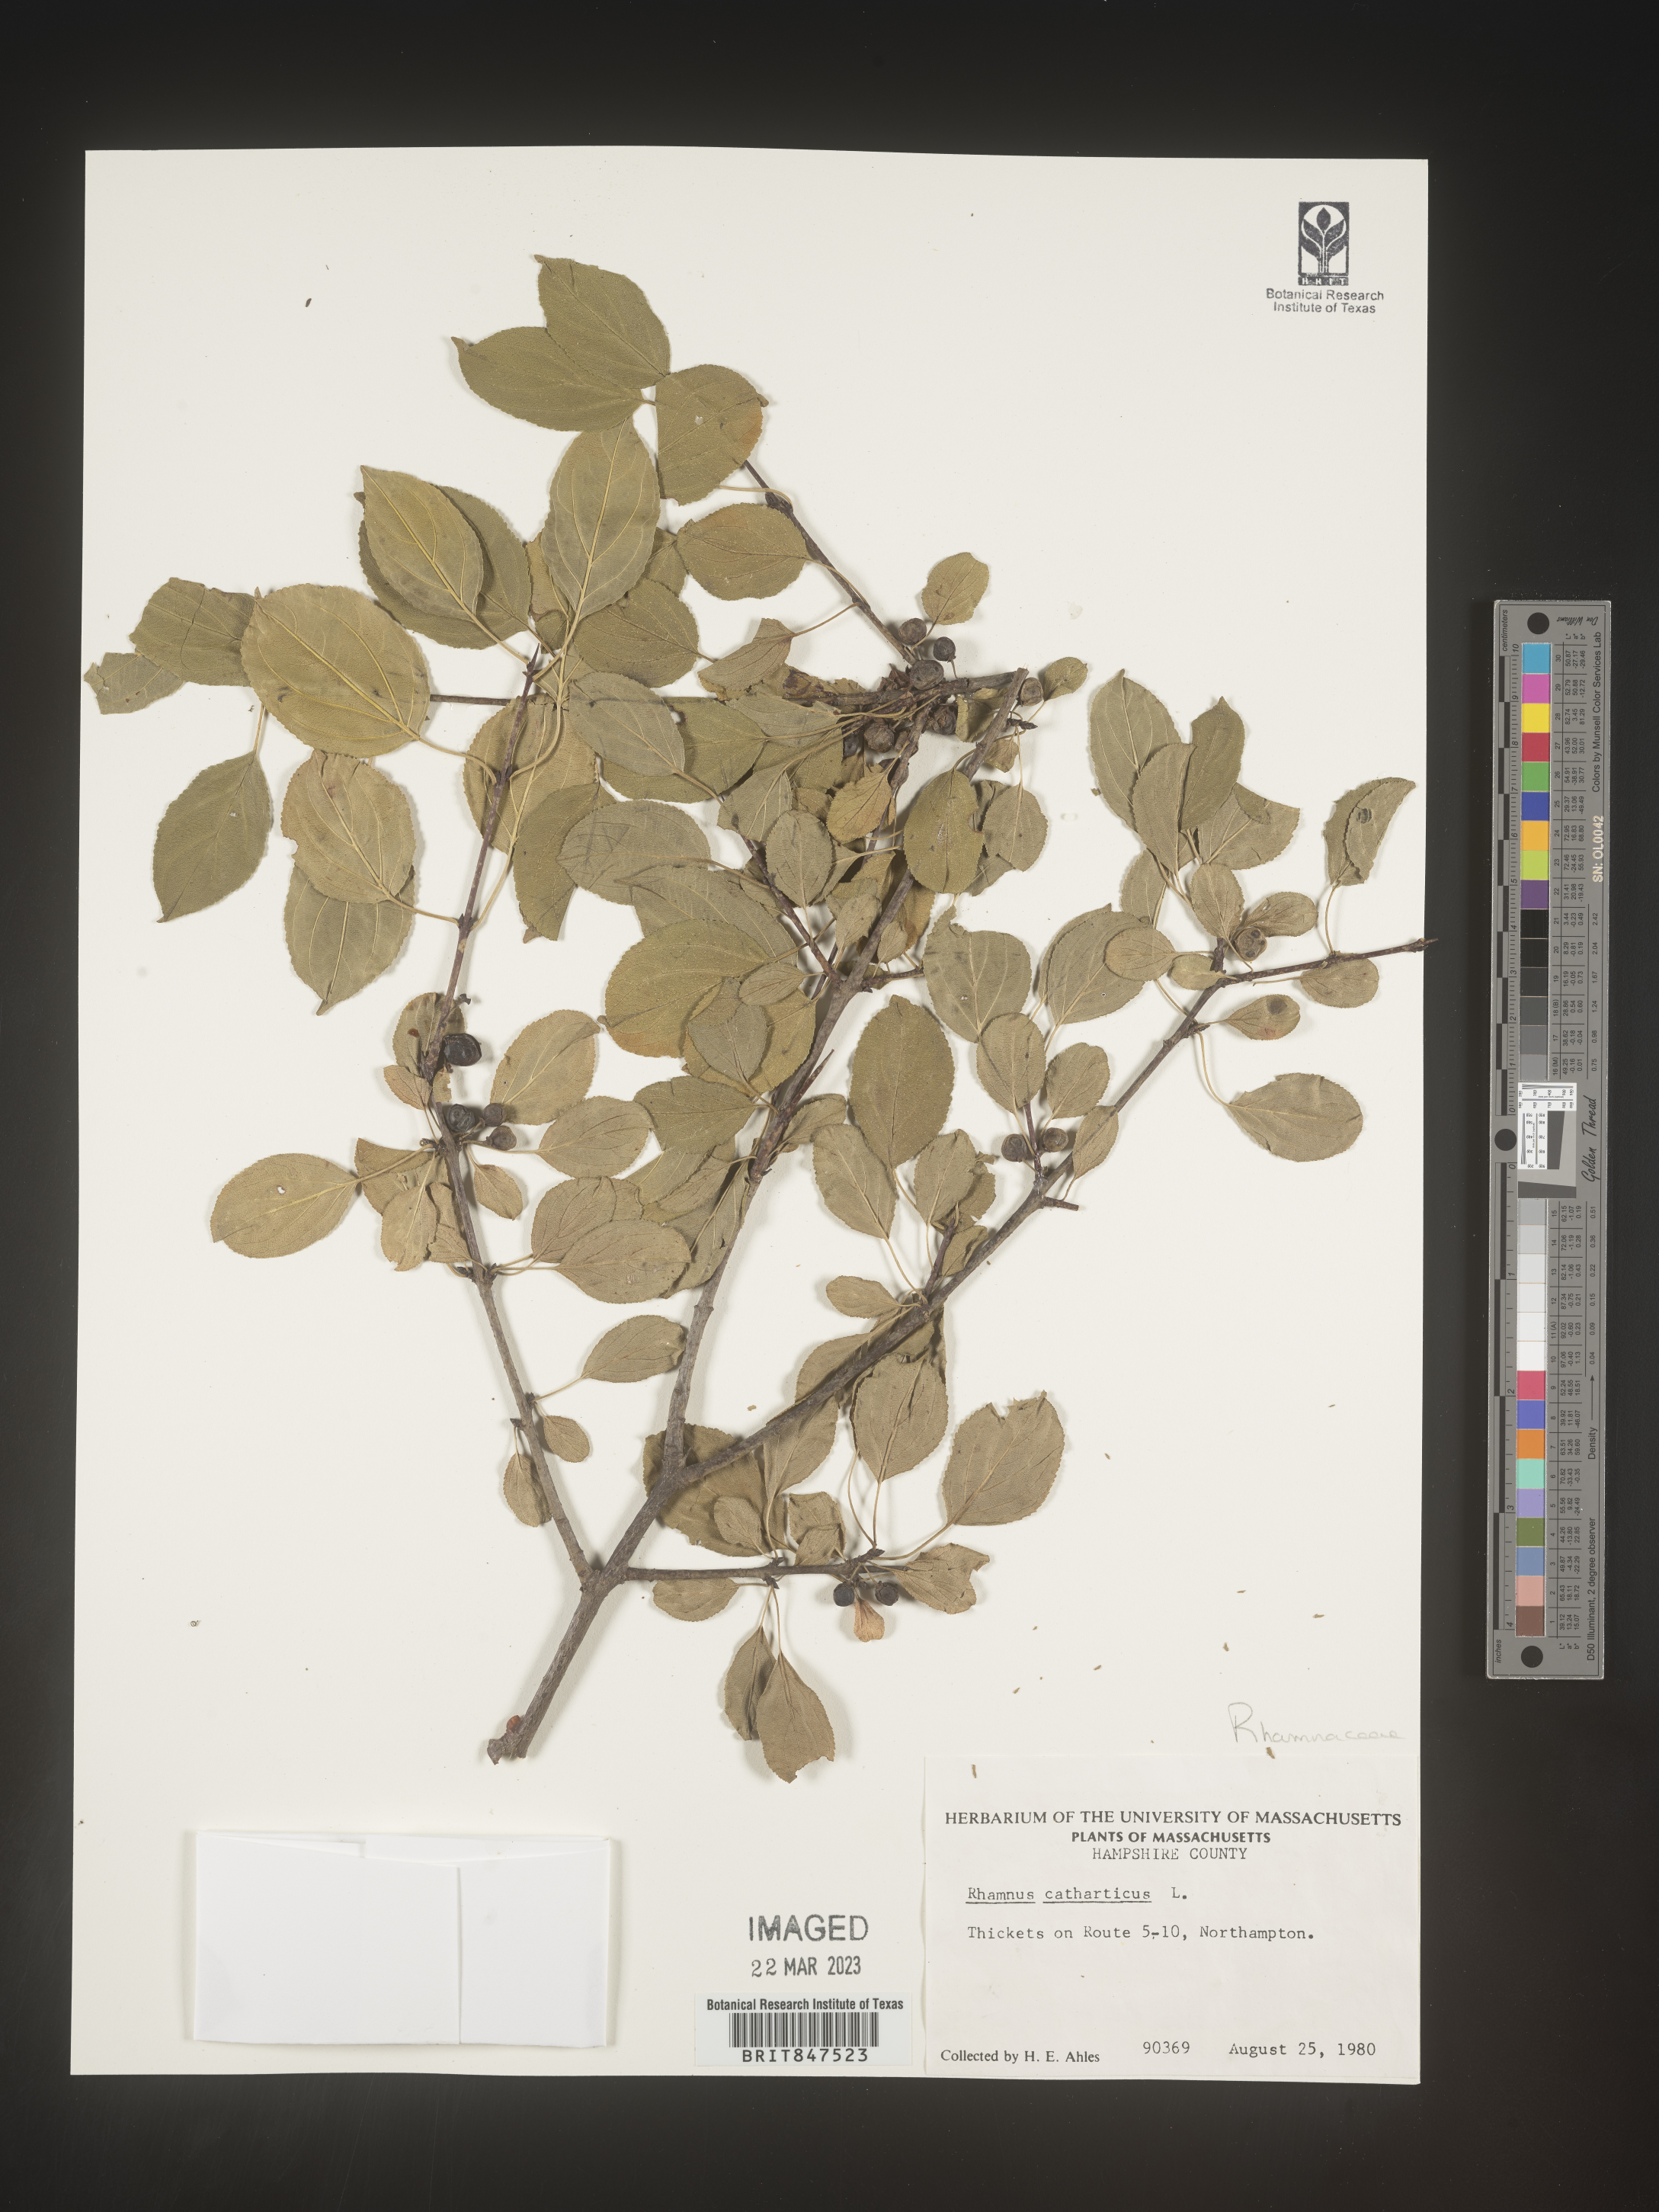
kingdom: Plantae
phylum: Tracheophyta
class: Magnoliopsida
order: Rosales
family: Rhamnaceae
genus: Rhamnus
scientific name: Rhamnus cathartica
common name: Common buckthorn
